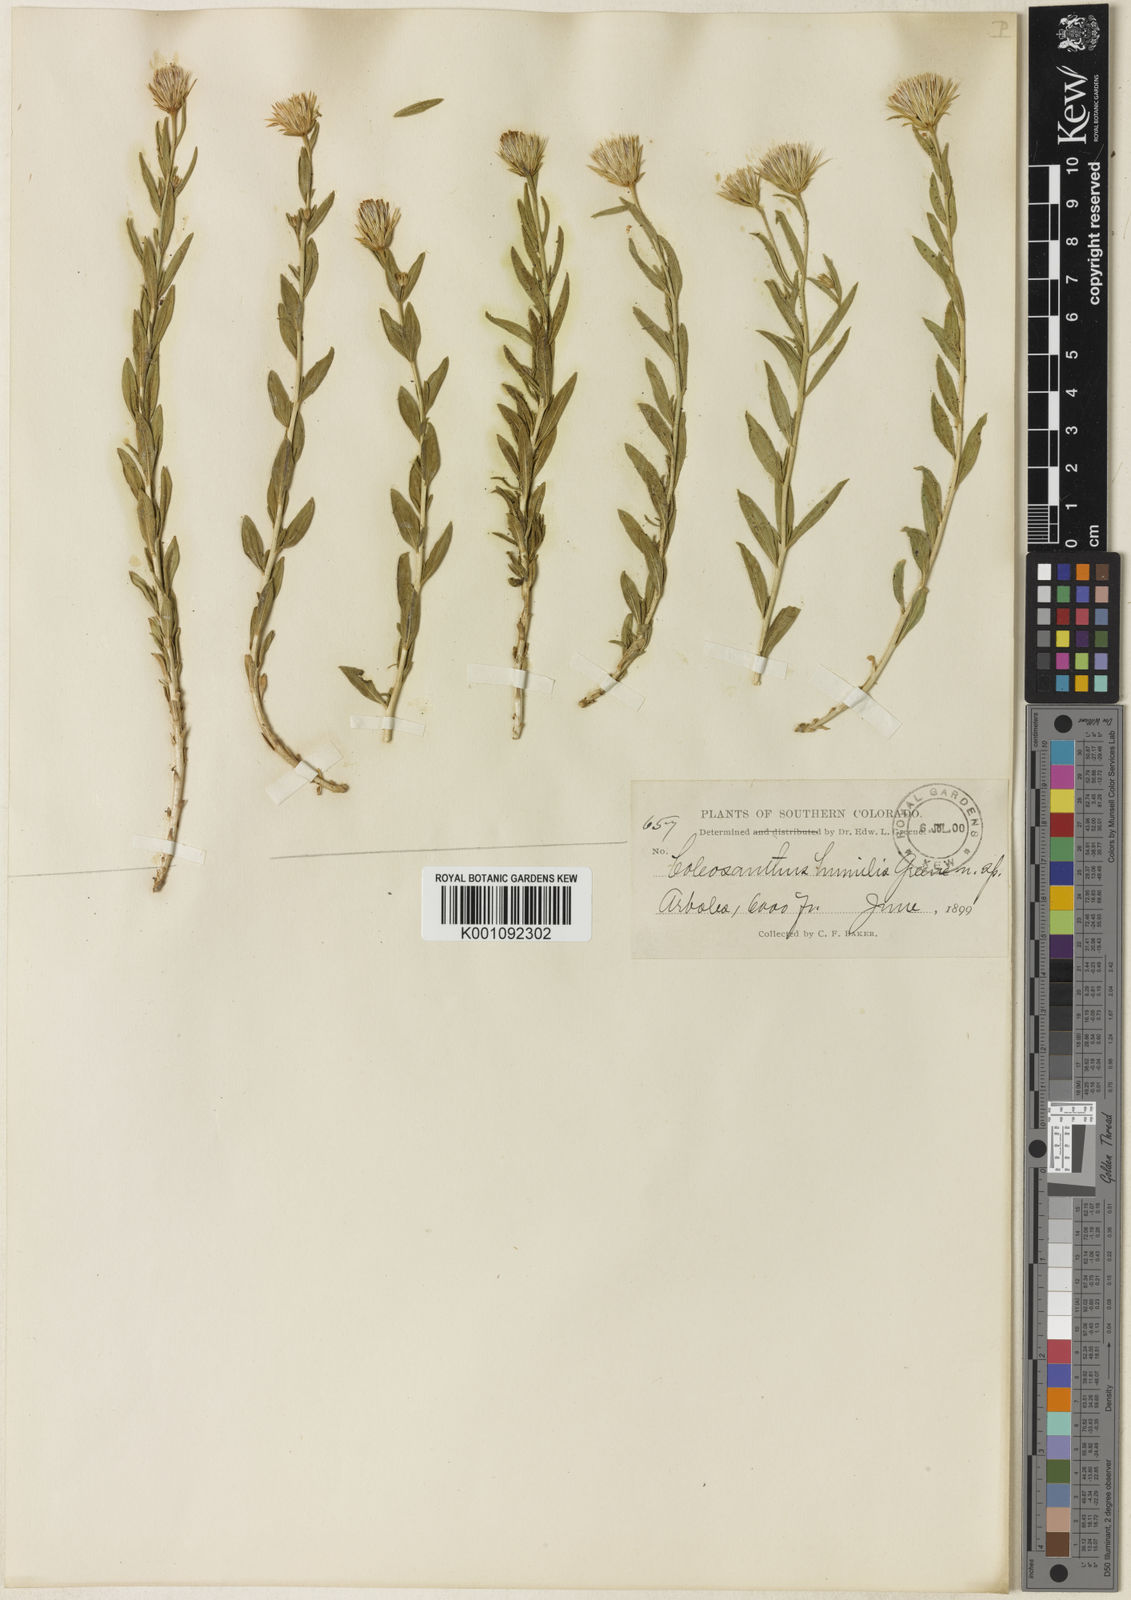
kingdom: Plantae
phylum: Tracheophyta
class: Magnoliopsida
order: Asterales
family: Asteraceae
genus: Brickellia
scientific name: Brickellia oblongifolia
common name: Mojave brickellbush
